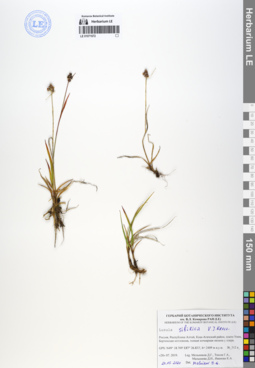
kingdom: Plantae
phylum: Tracheophyta
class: Liliopsida
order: Poales
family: Juncaceae
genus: Luzula
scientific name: Luzula multiflora
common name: Heath wood-rush
